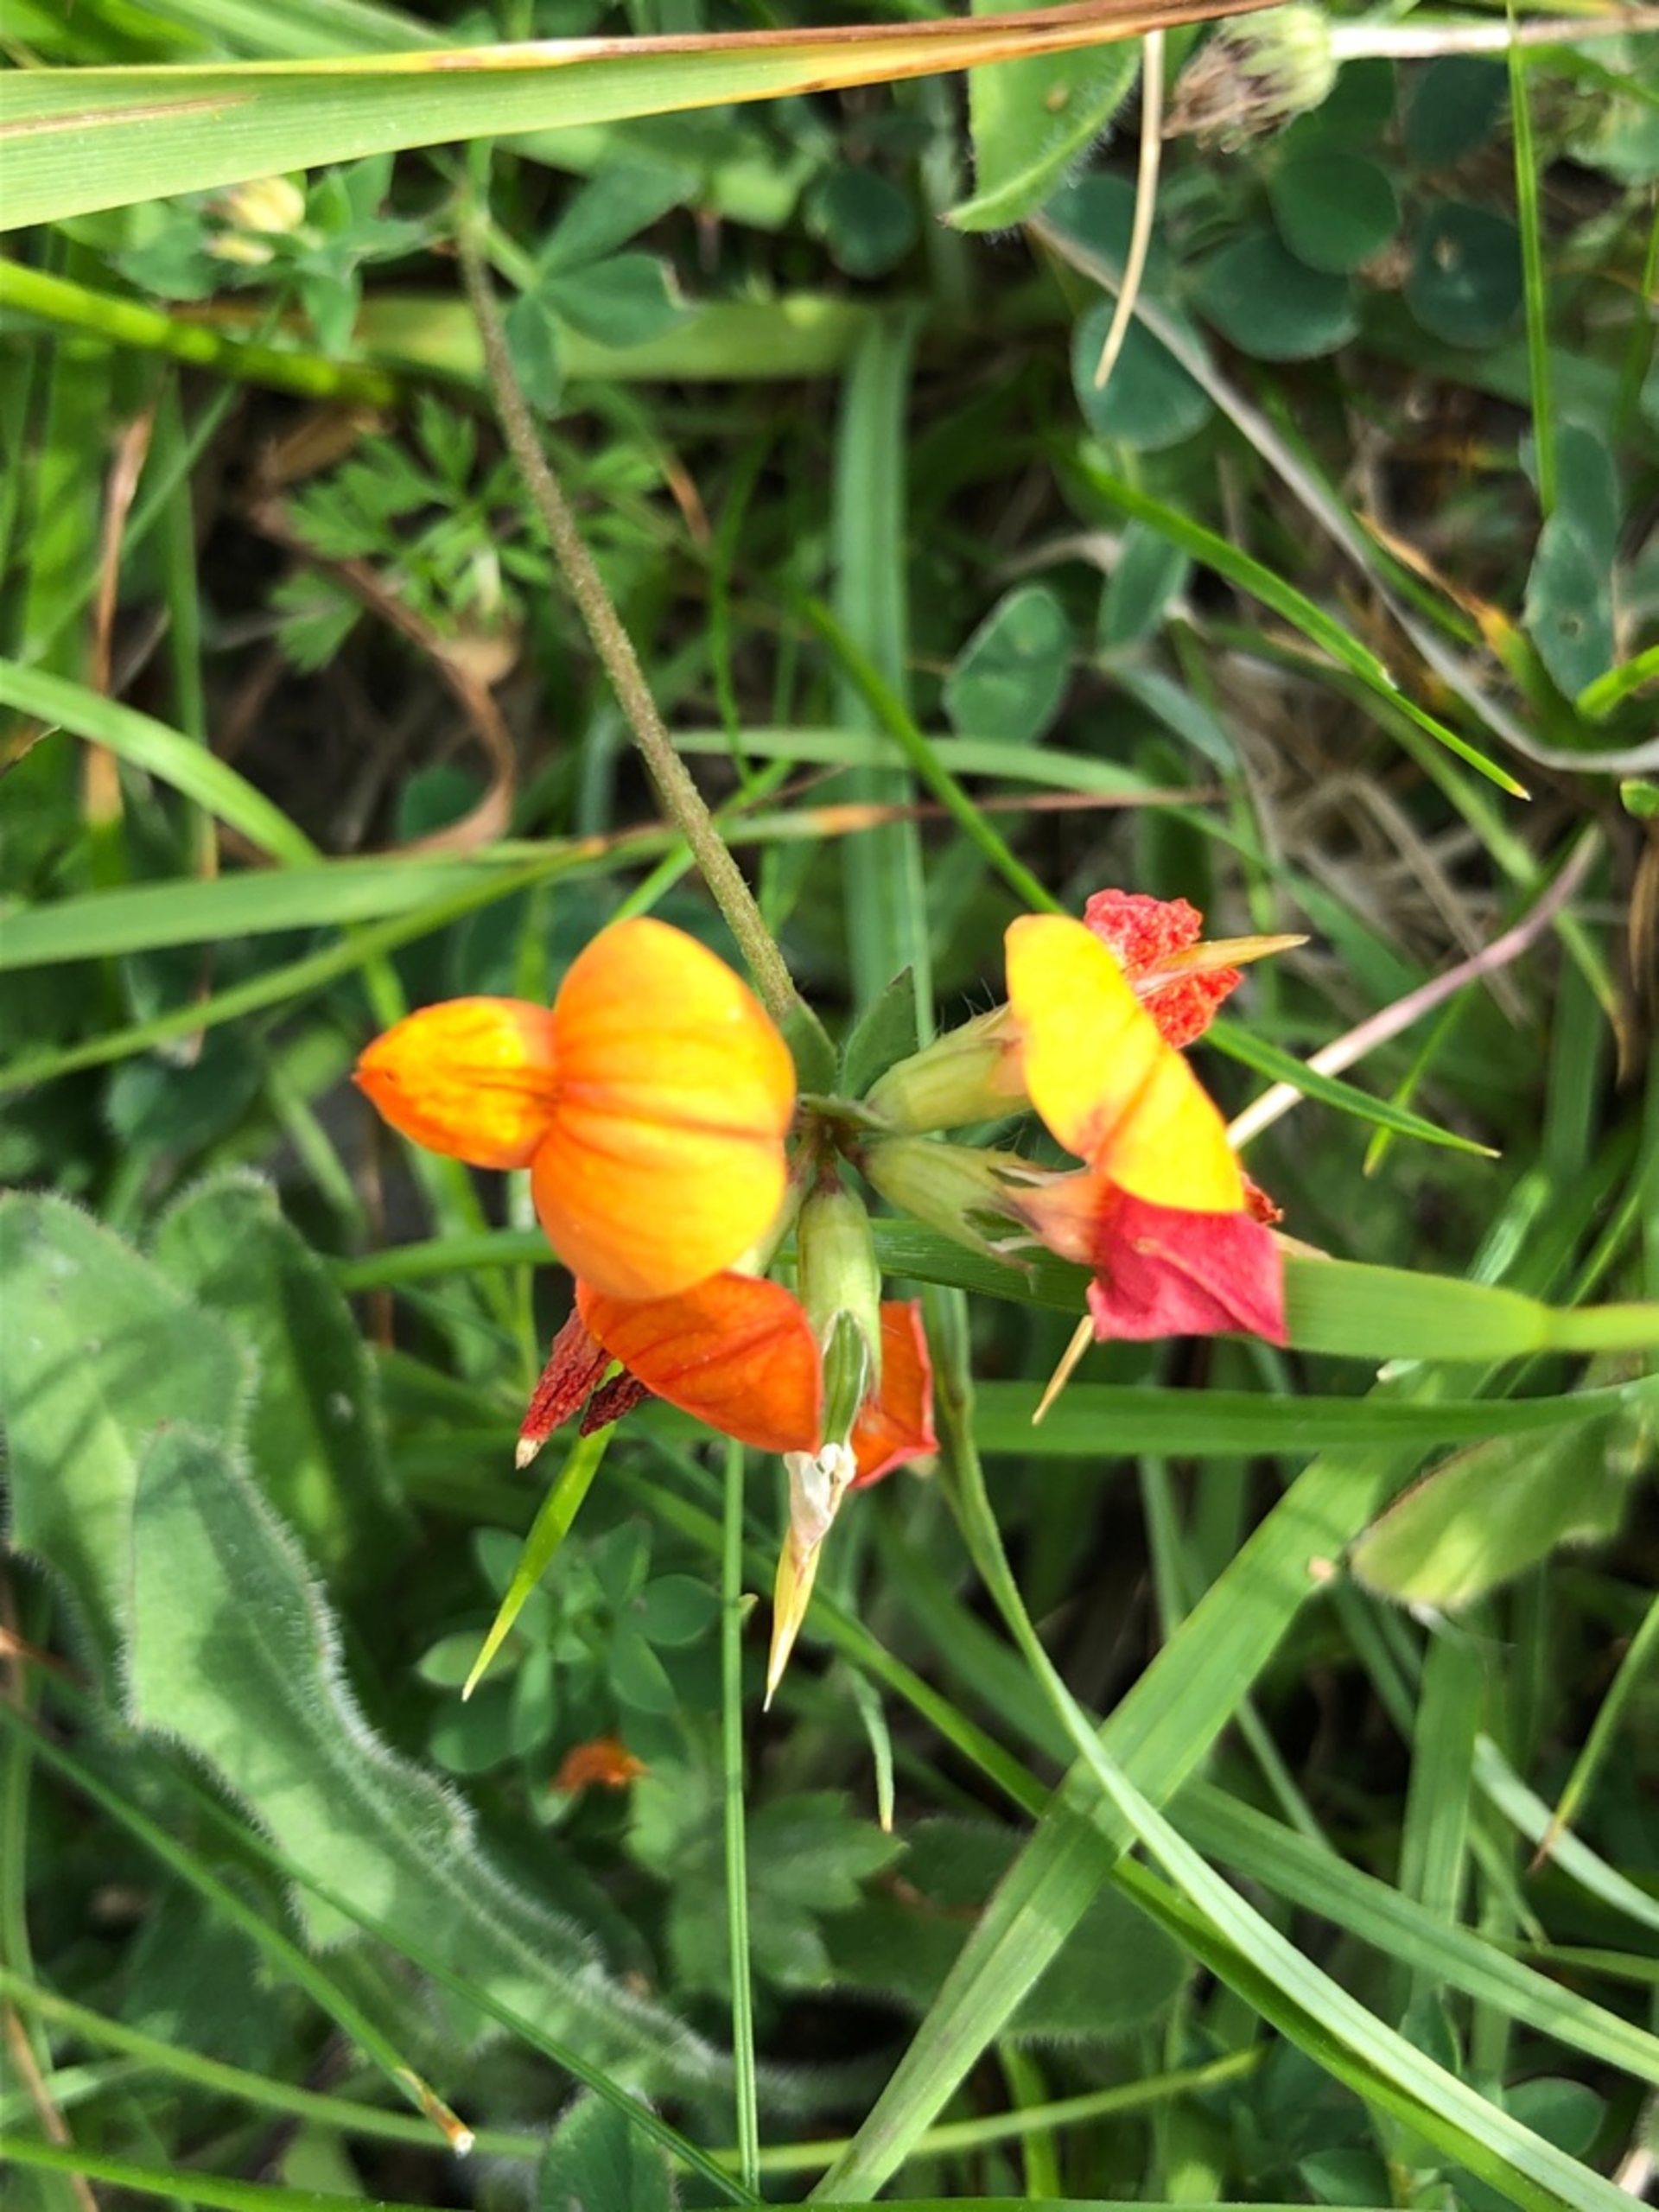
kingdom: Plantae
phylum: Tracheophyta
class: Magnoliopsida
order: Fabales
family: Fabaceae
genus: Lotus
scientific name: Lotus corniculatus
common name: Almindelig kællingetand
